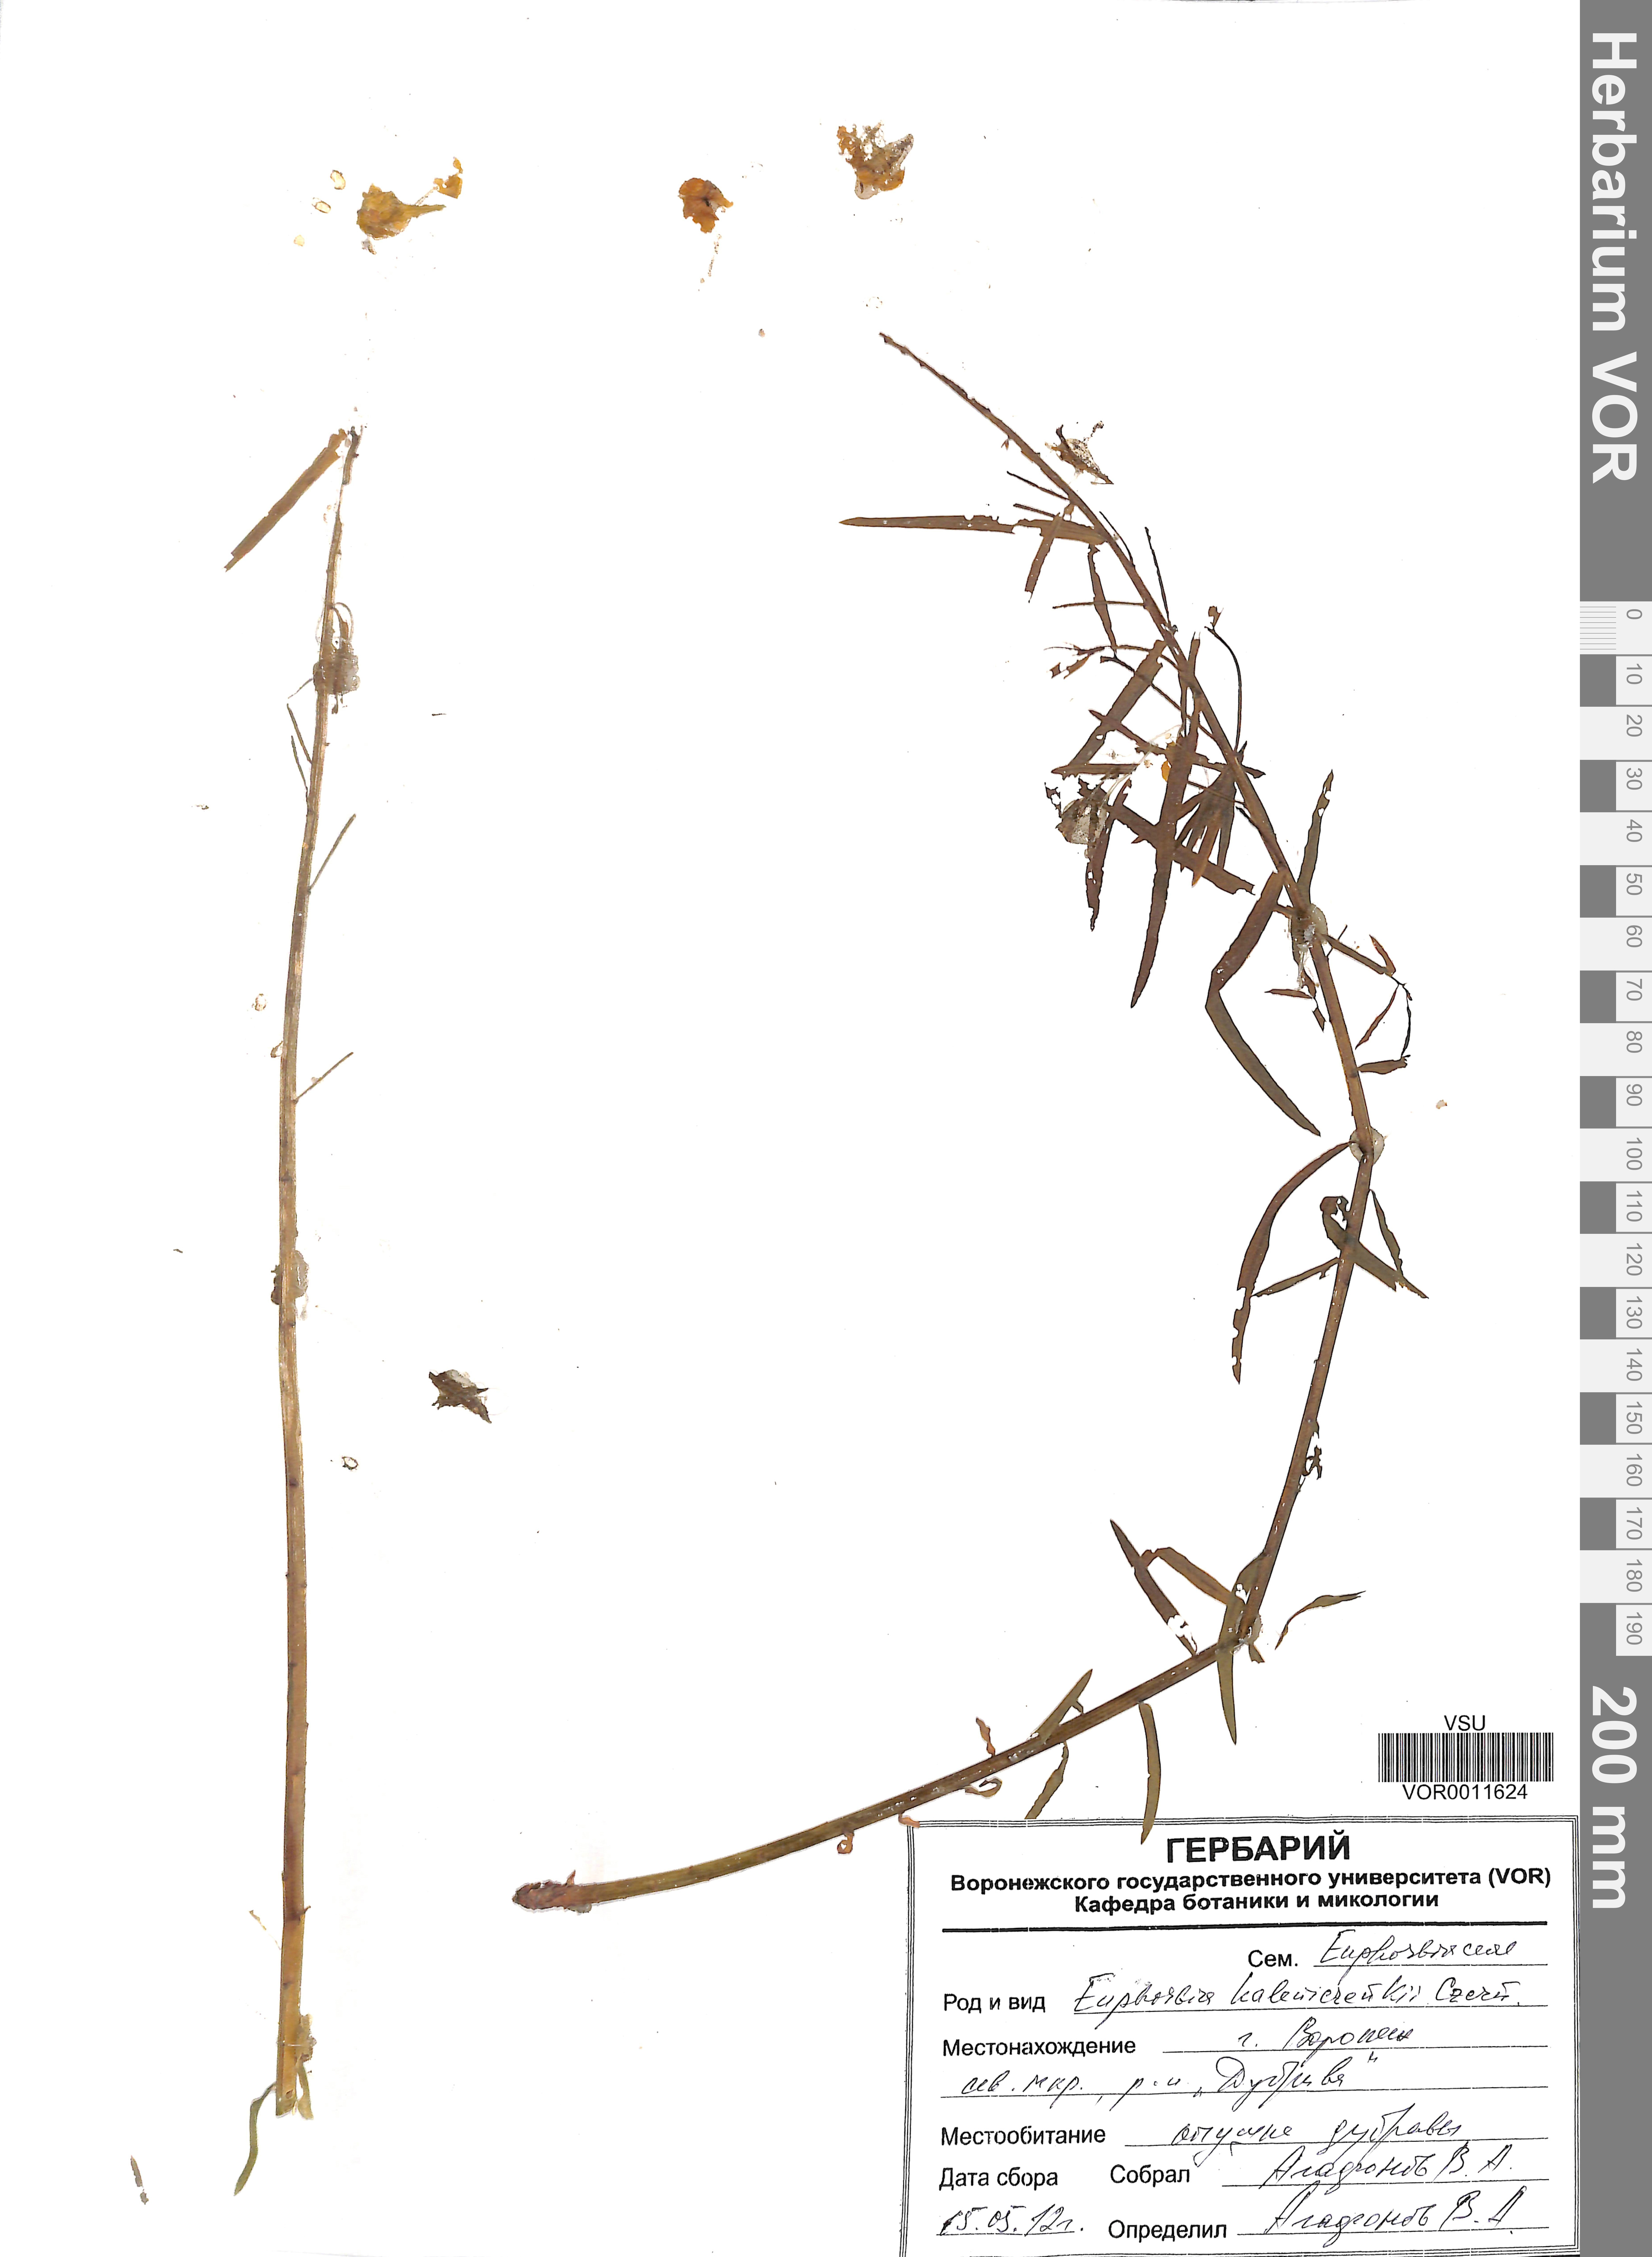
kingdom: Plantae
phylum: Tracheophyta
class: Magnoliopsida
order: Malpighiales
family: Euphorbiaceae
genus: Euphorbia
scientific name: Euphorbia esula
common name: Leafy spurge
